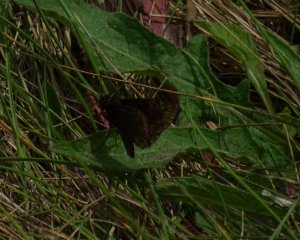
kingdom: Animalia
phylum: Arthropoda
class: Insecta
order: Lepidoptera
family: Hesperiidae
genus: Gesta
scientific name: Gesta
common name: Columbine Duskywing
